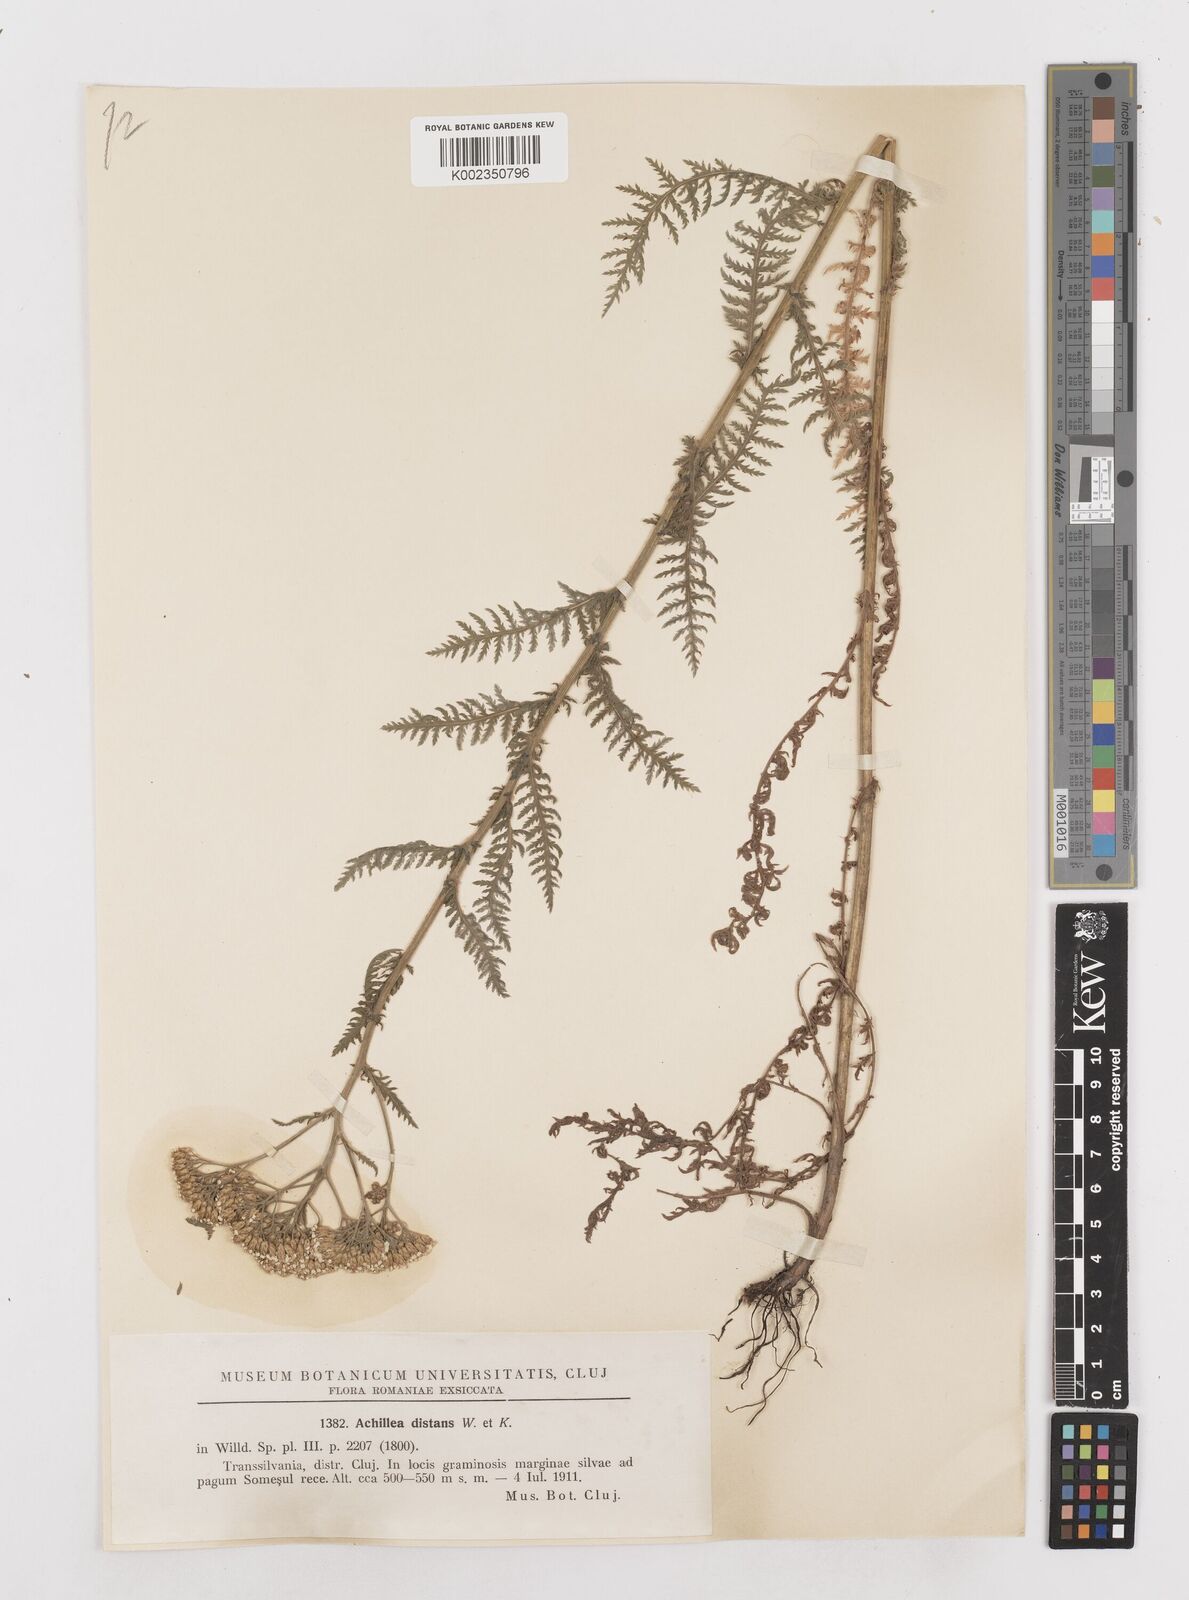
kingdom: Plantae
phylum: Tracheophyta
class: Magnoliopsida
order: Asterales
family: Asteraceae
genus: Achillea
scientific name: Achillea distans
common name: Tall yarrow
